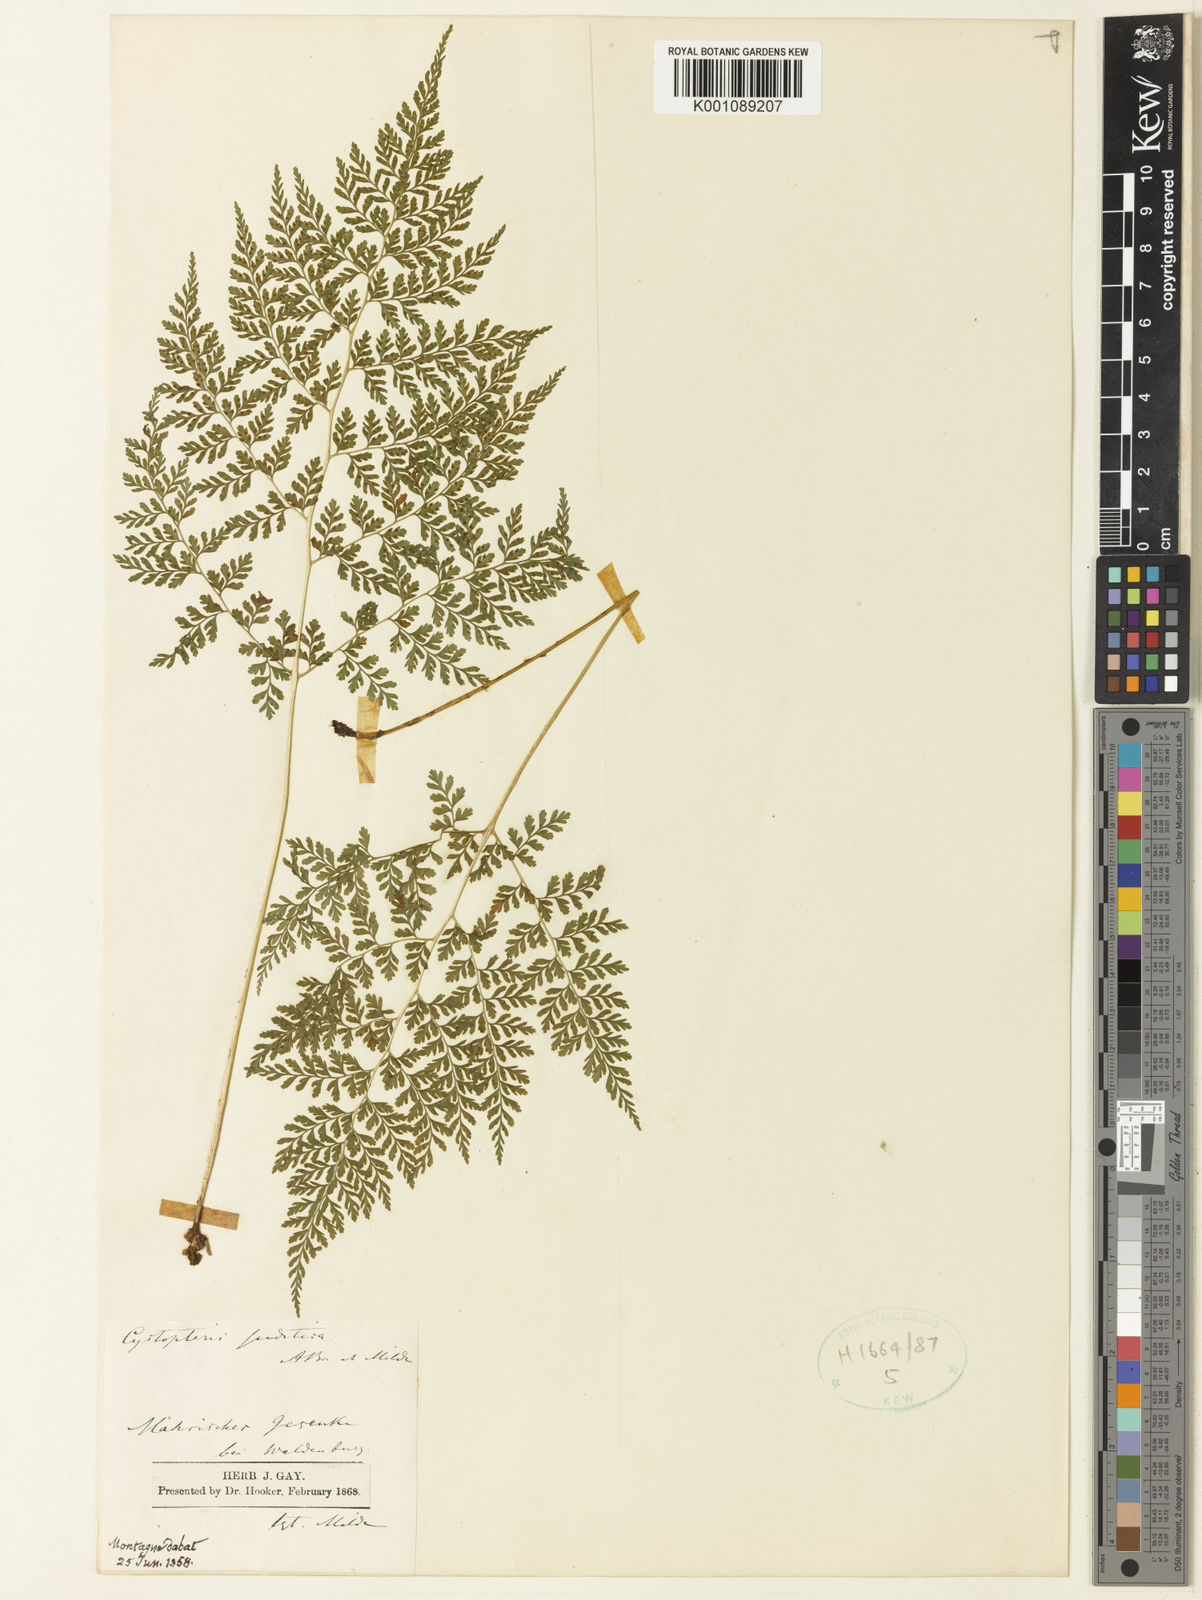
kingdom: Plantae
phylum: Tracheophyta
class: Polypodiopsida
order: Polypodiales
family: Cystopteridaceae
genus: Cystopteris
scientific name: Cystopteris sudetica
